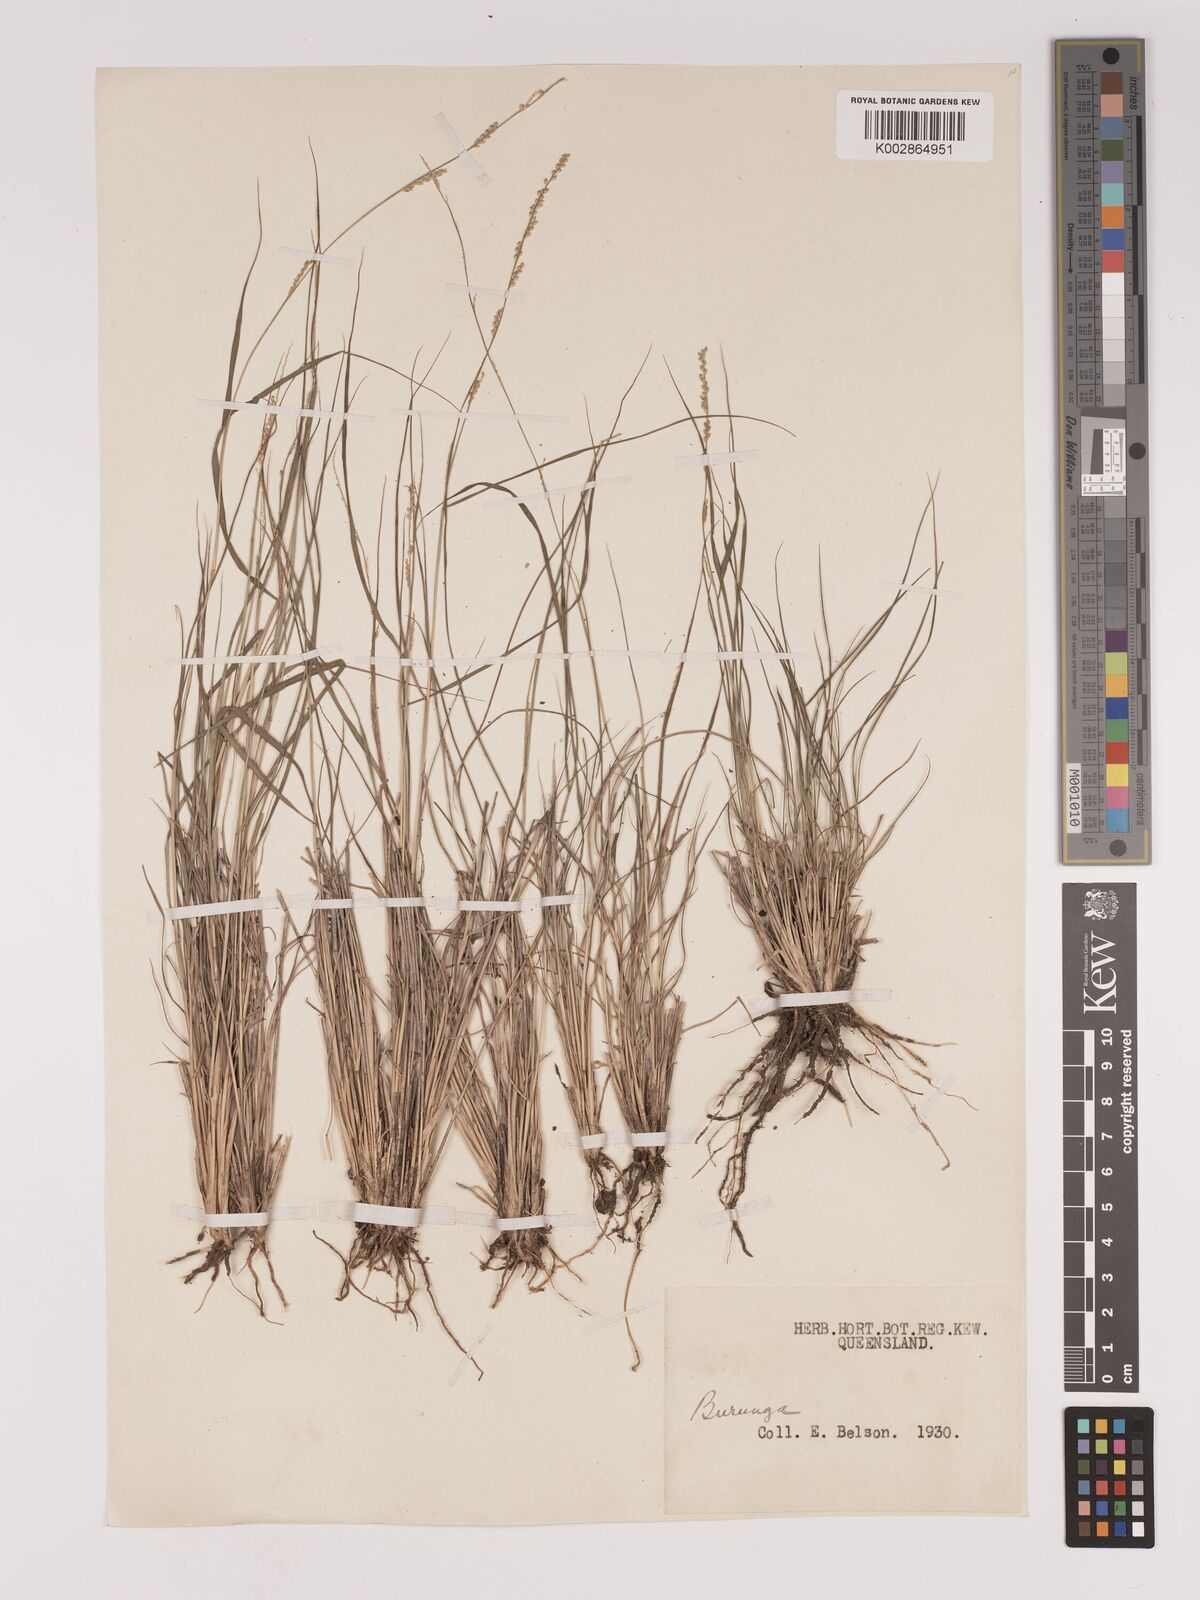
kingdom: Plantae
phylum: Tracheophyta
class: Liliopsida
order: Poales
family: Poaceae
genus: Setaria
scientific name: Setaria
